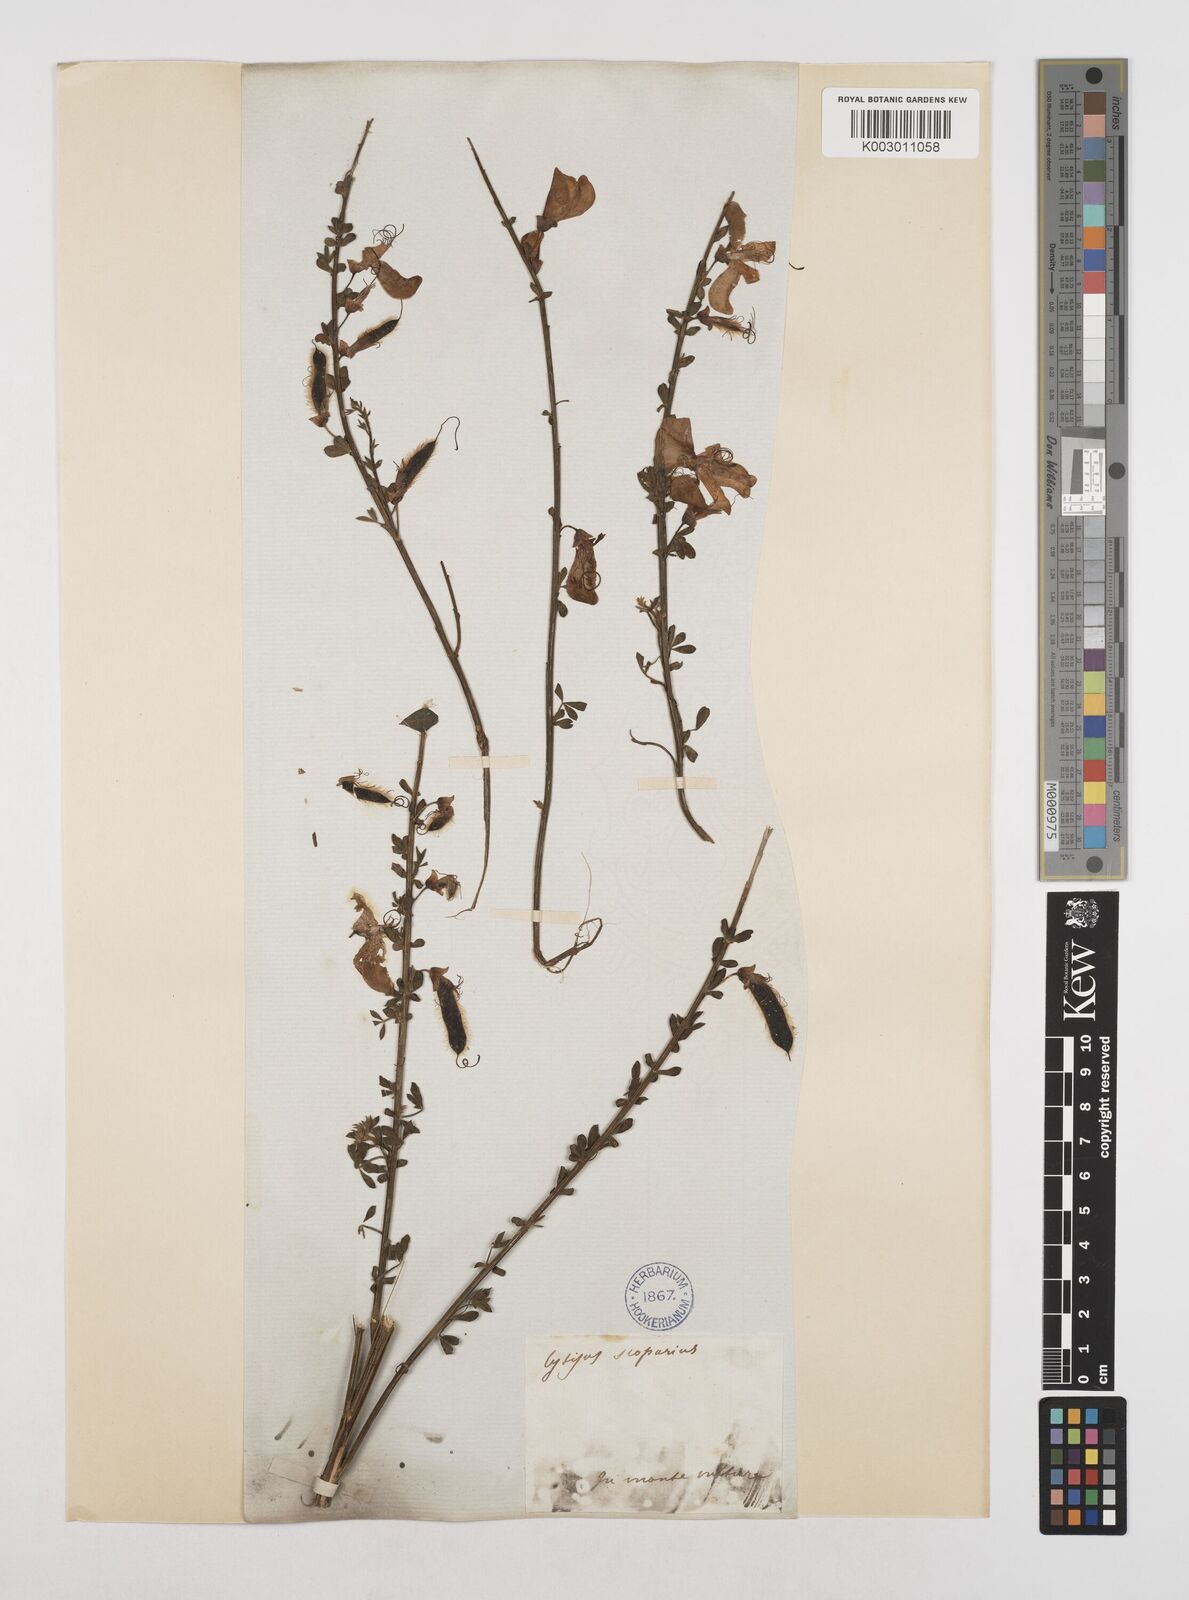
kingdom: Plantae
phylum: Tracheophyta
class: Magnoliopsida
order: Fabales
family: Fabaceae
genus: Cytisus
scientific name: Cytisus scoparius
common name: Scotch broom
